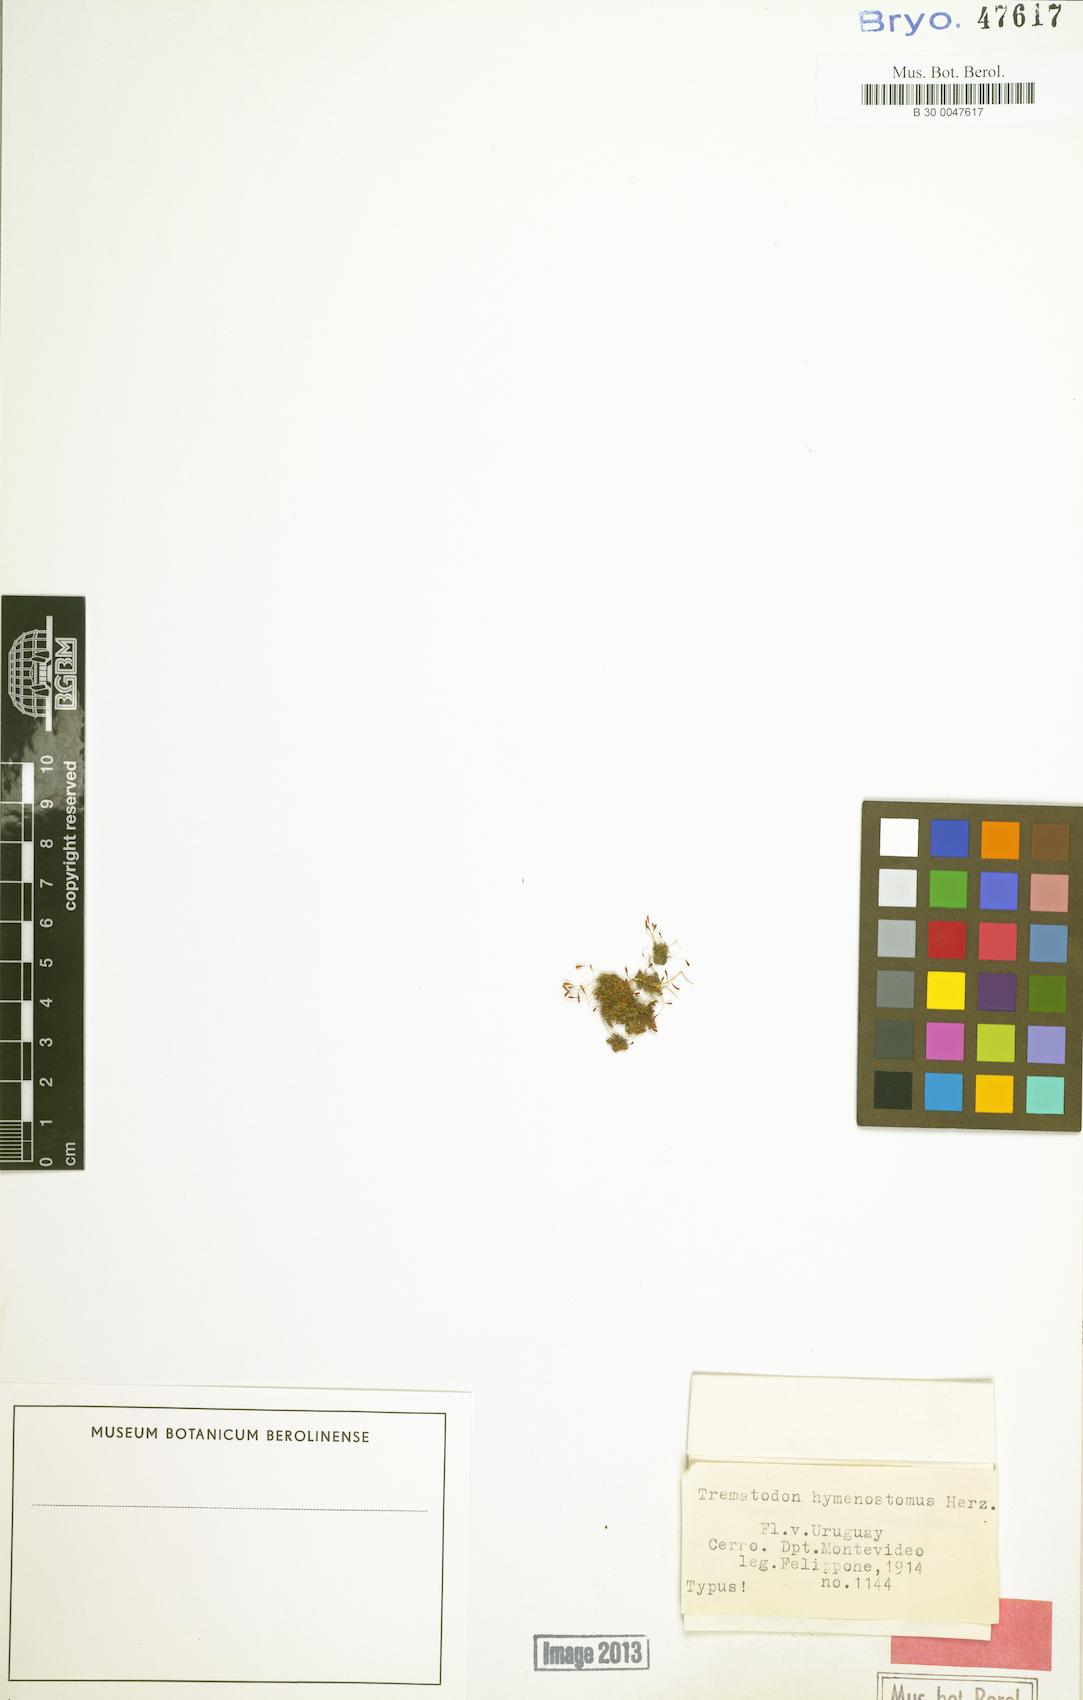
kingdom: Plantae
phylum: Bryophyta
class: Bryopsida
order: Dicranales
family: Bruchiaceae
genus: Trematodon
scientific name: Trematodon
